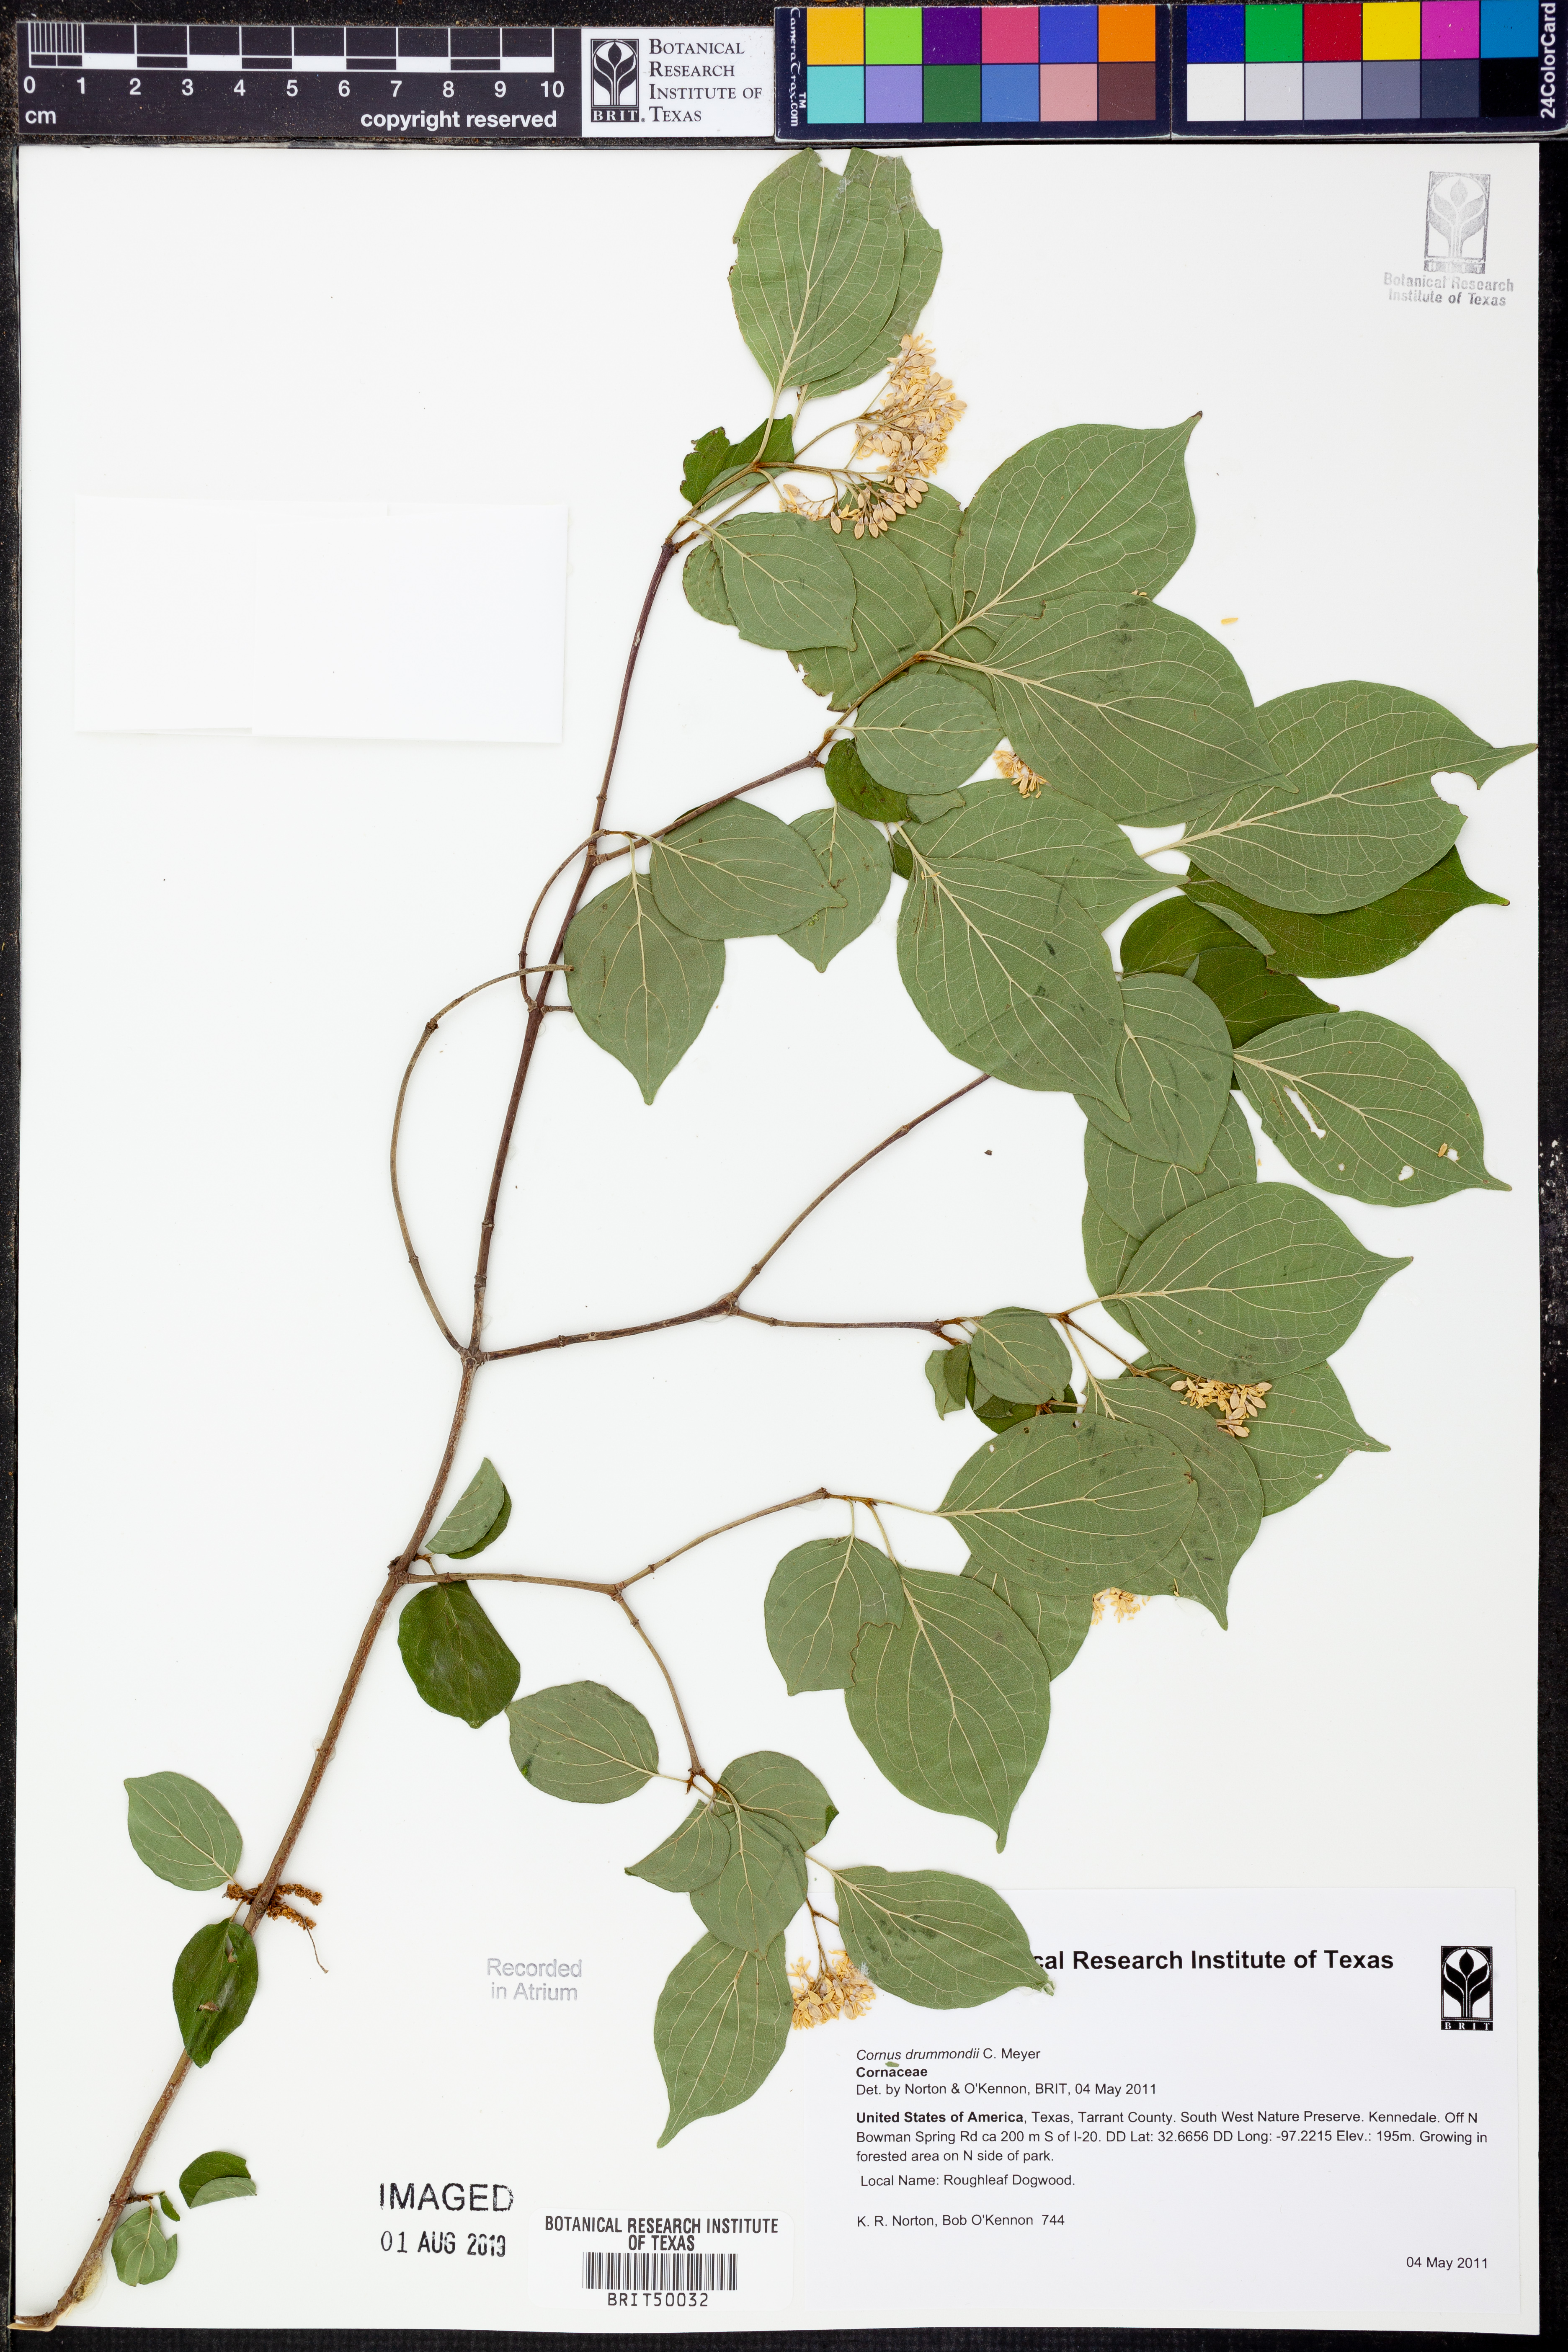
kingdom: Plantae
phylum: Tracheophyta
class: Magnoliopsida
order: Cornales
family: Cornaceae
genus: Cornus
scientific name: Cornus drummondii
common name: Rough-leaf dogwood
